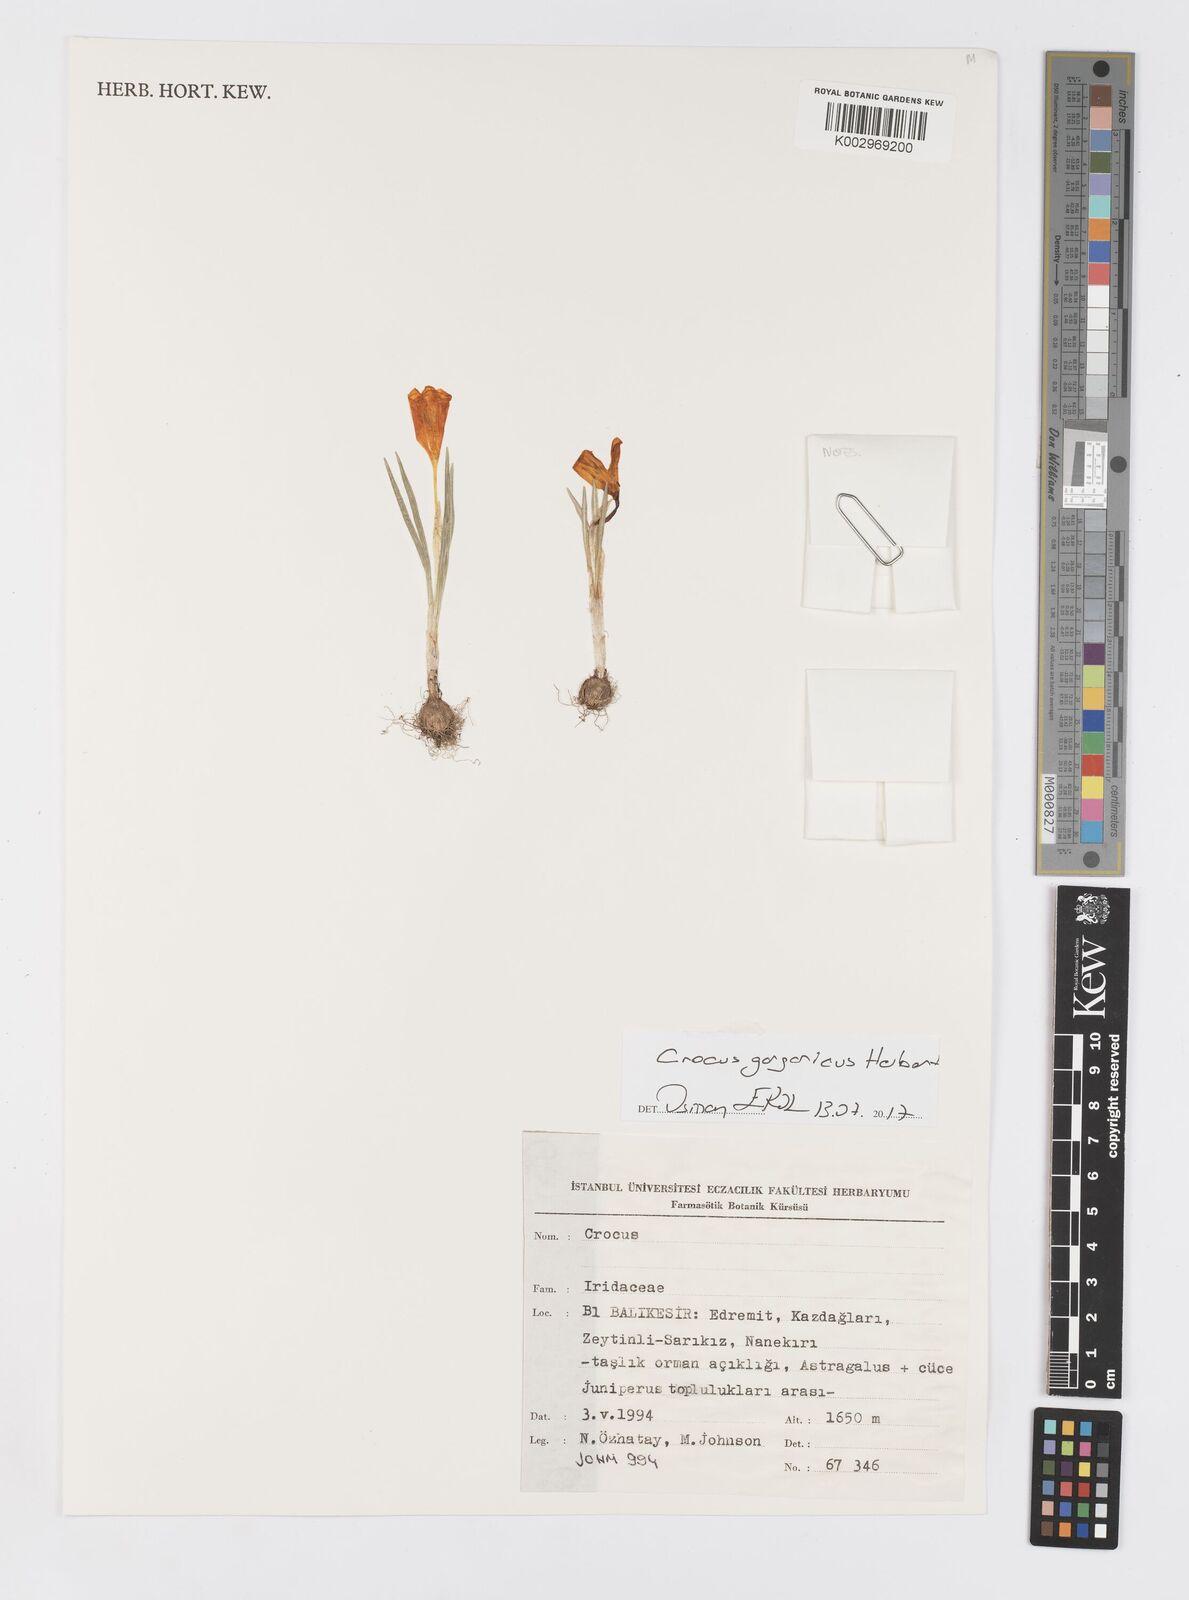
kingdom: Plantae
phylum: Tracheophyta
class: Liliopsida
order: Asparagales
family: Iridaceae
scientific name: Iridaceae
